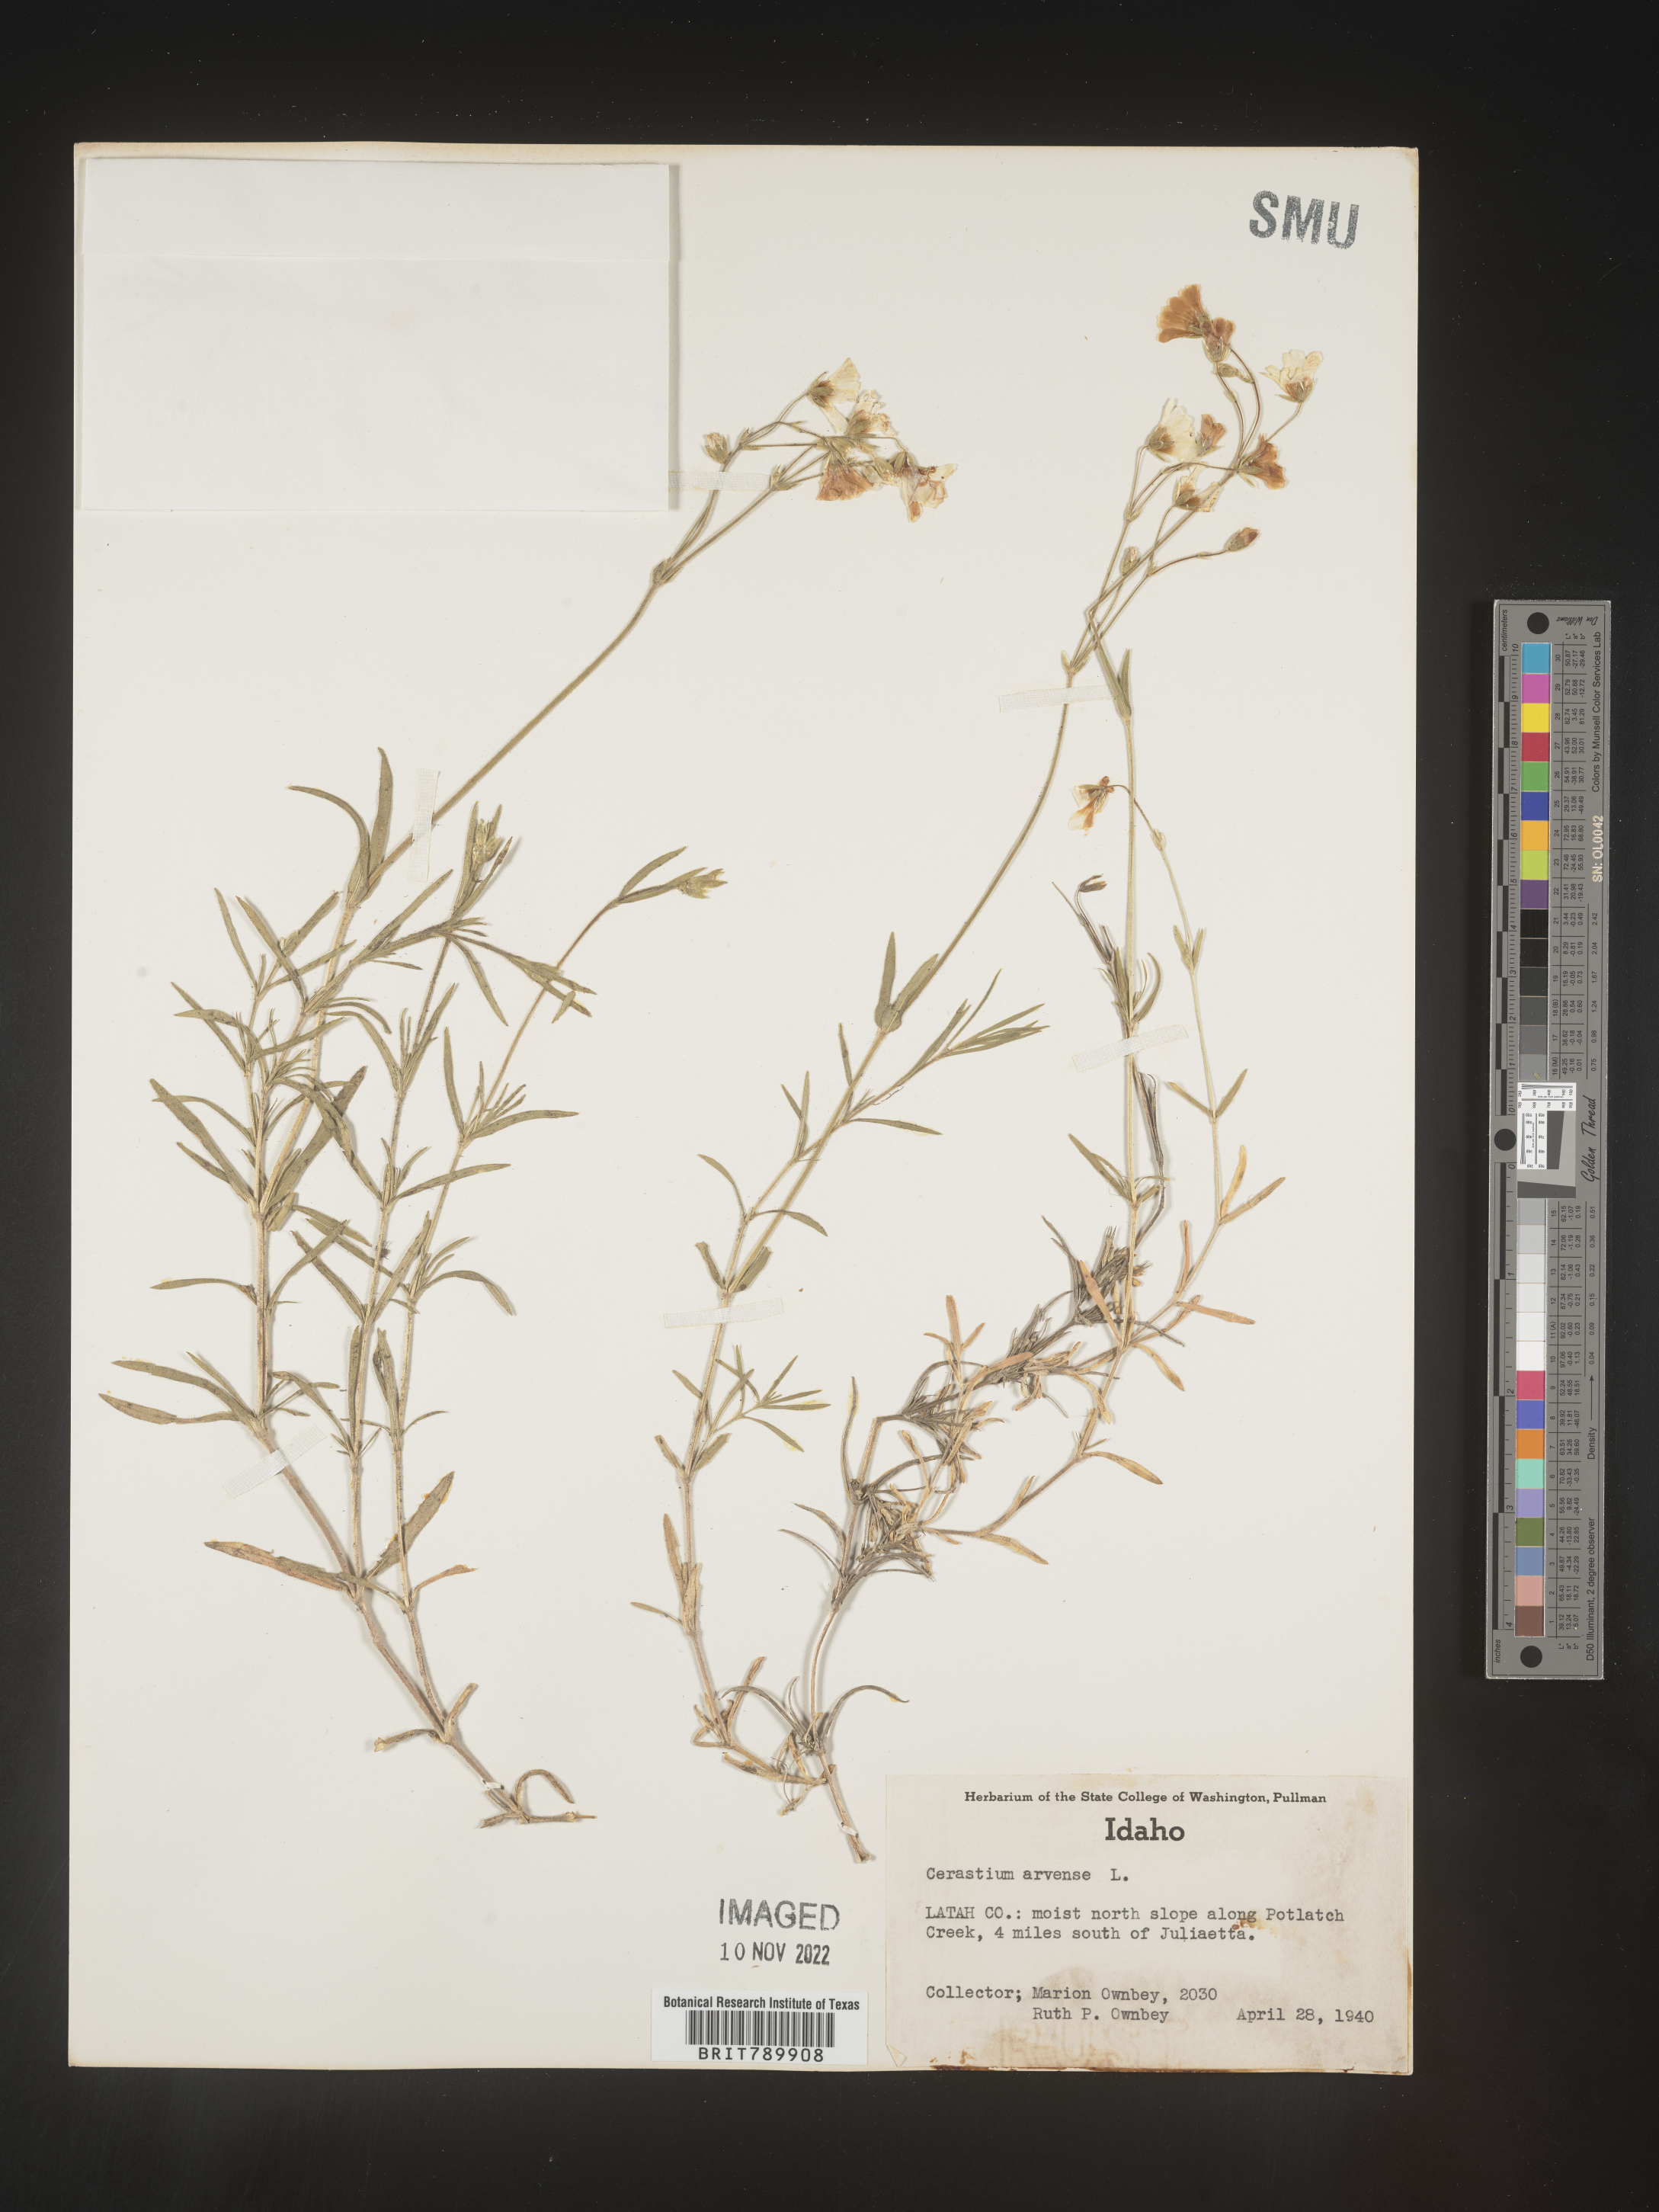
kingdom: Plantae
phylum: Tracheophyta
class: Magnoliopsida
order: Caryophyllales
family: Caryophyllaceae
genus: Cerastium
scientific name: Cerastium arvense
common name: Field mouse-ear
